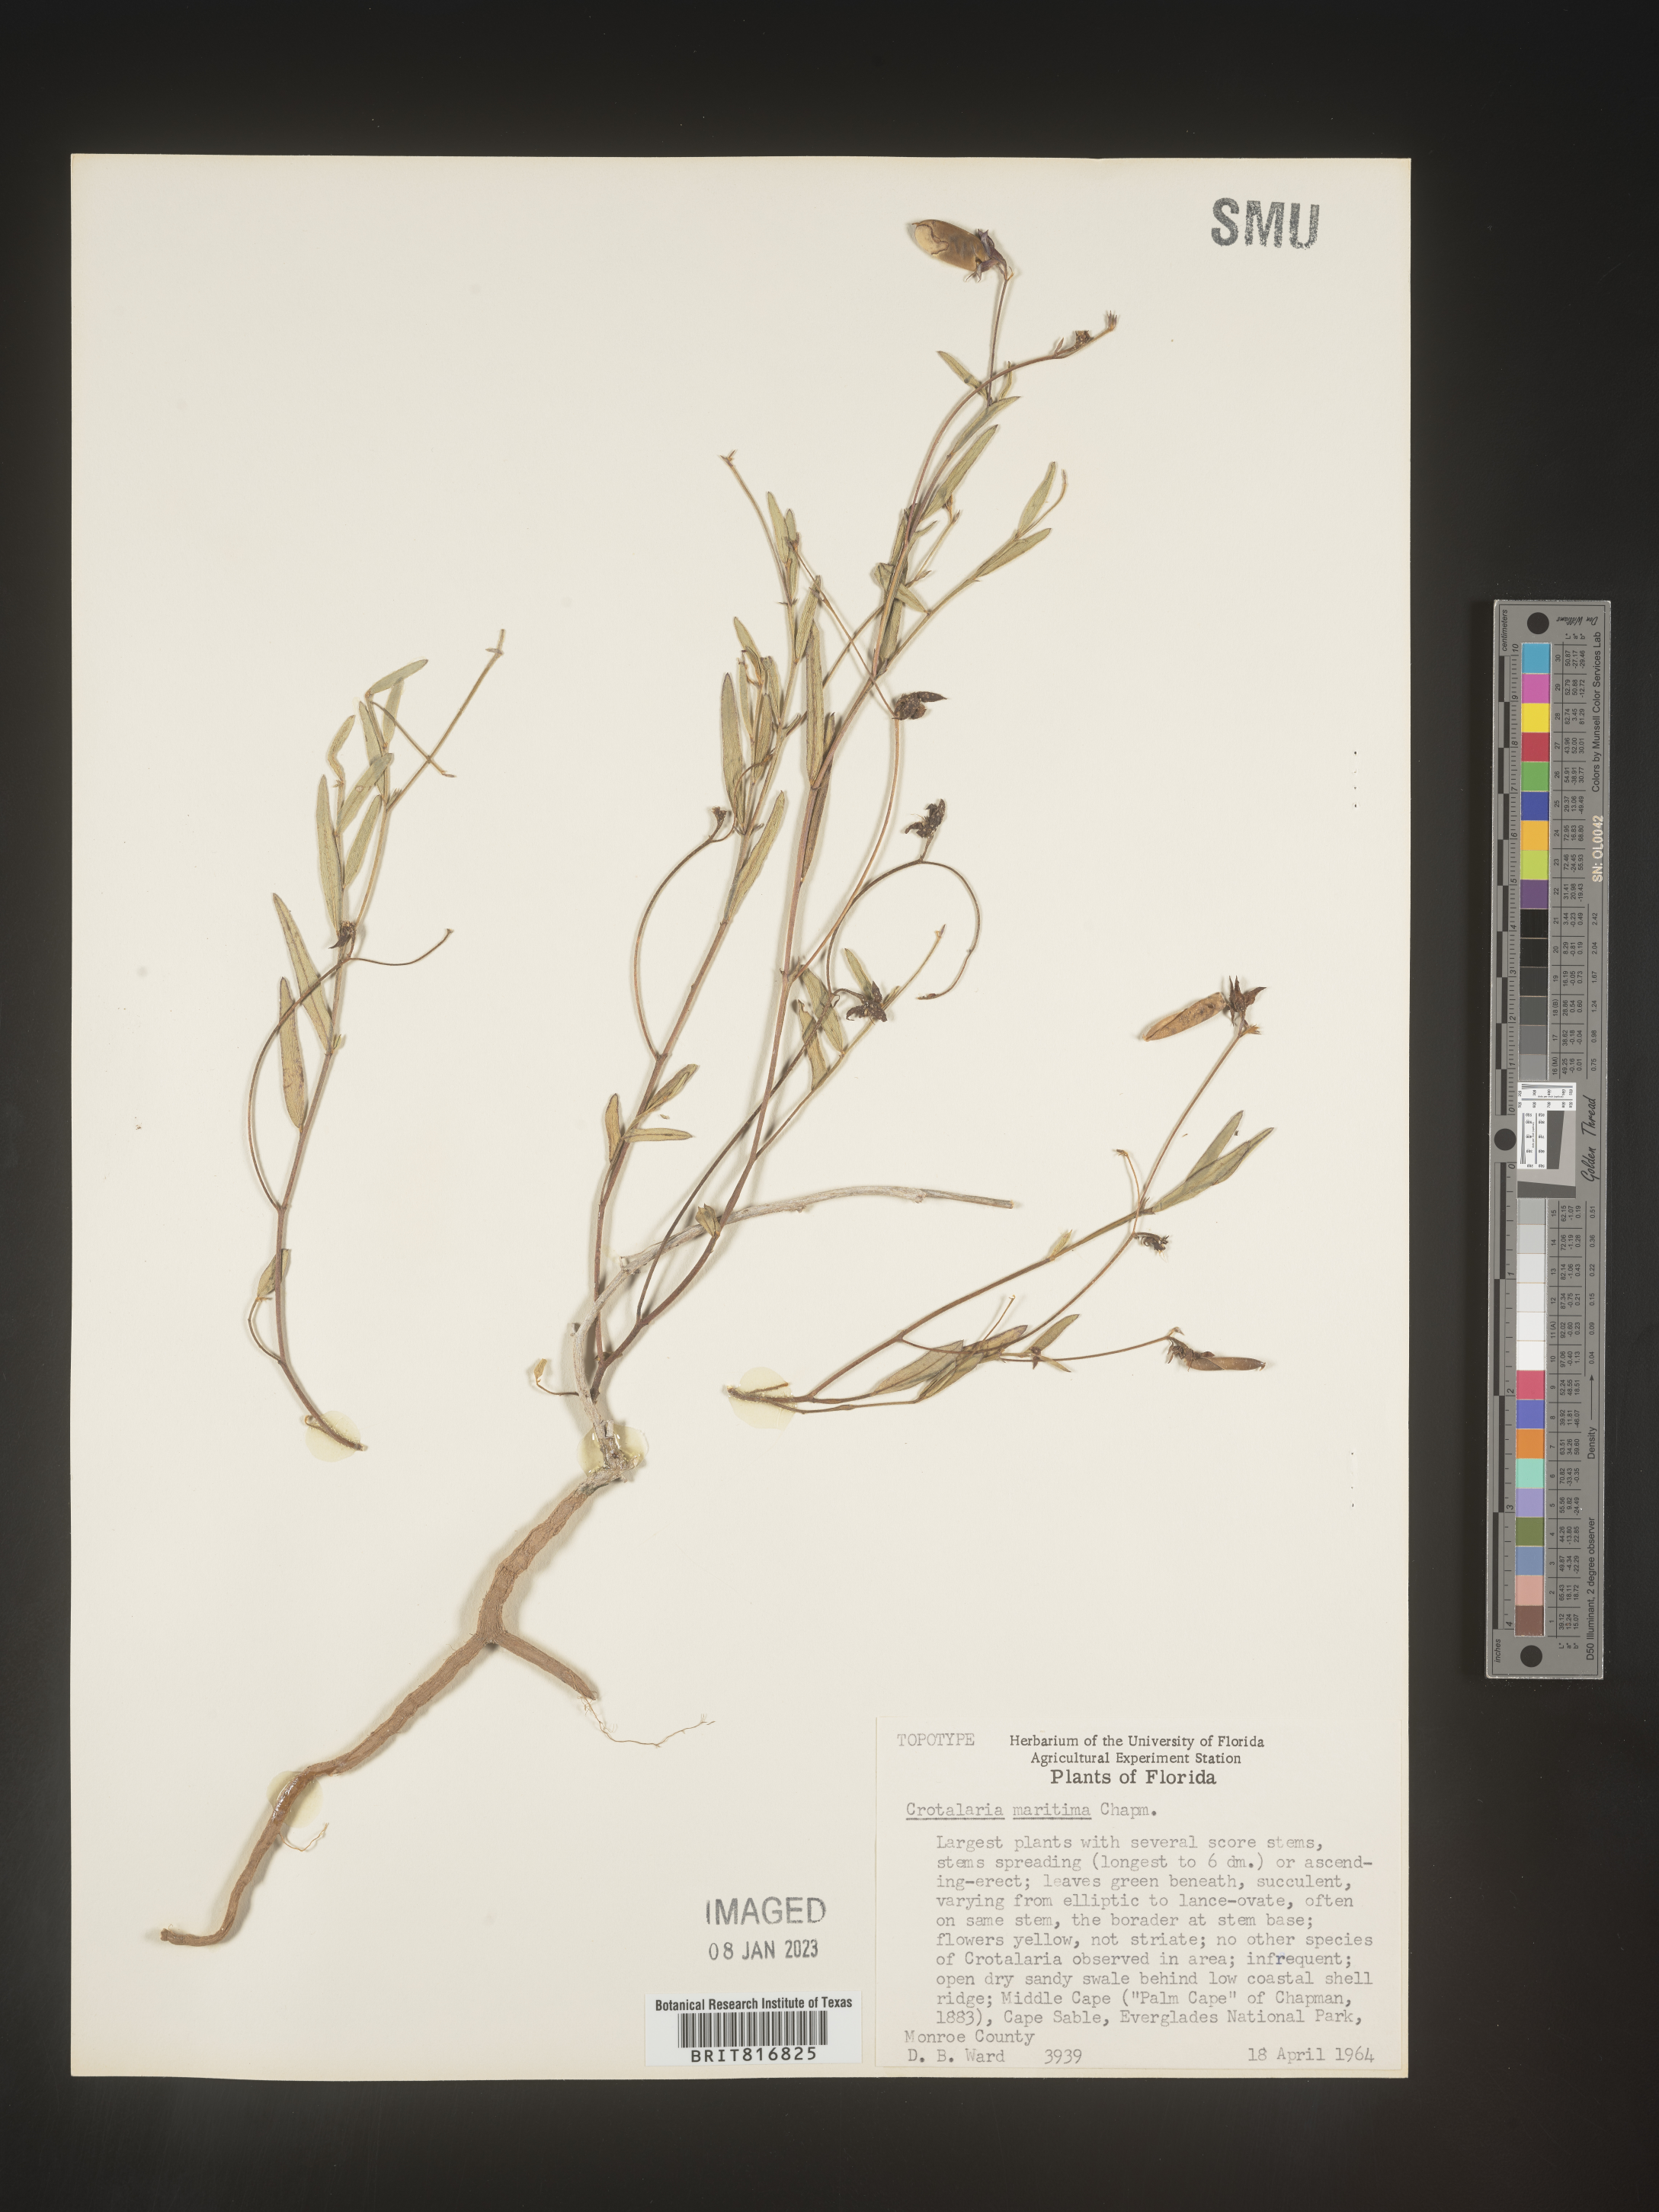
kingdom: Plantae
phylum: Tracheophyta
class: Magnoliopsida
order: Fabales
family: Fabaceae
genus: Crotalaria
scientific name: Crotalaria rotundifolia
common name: Prostrate rattlebox
